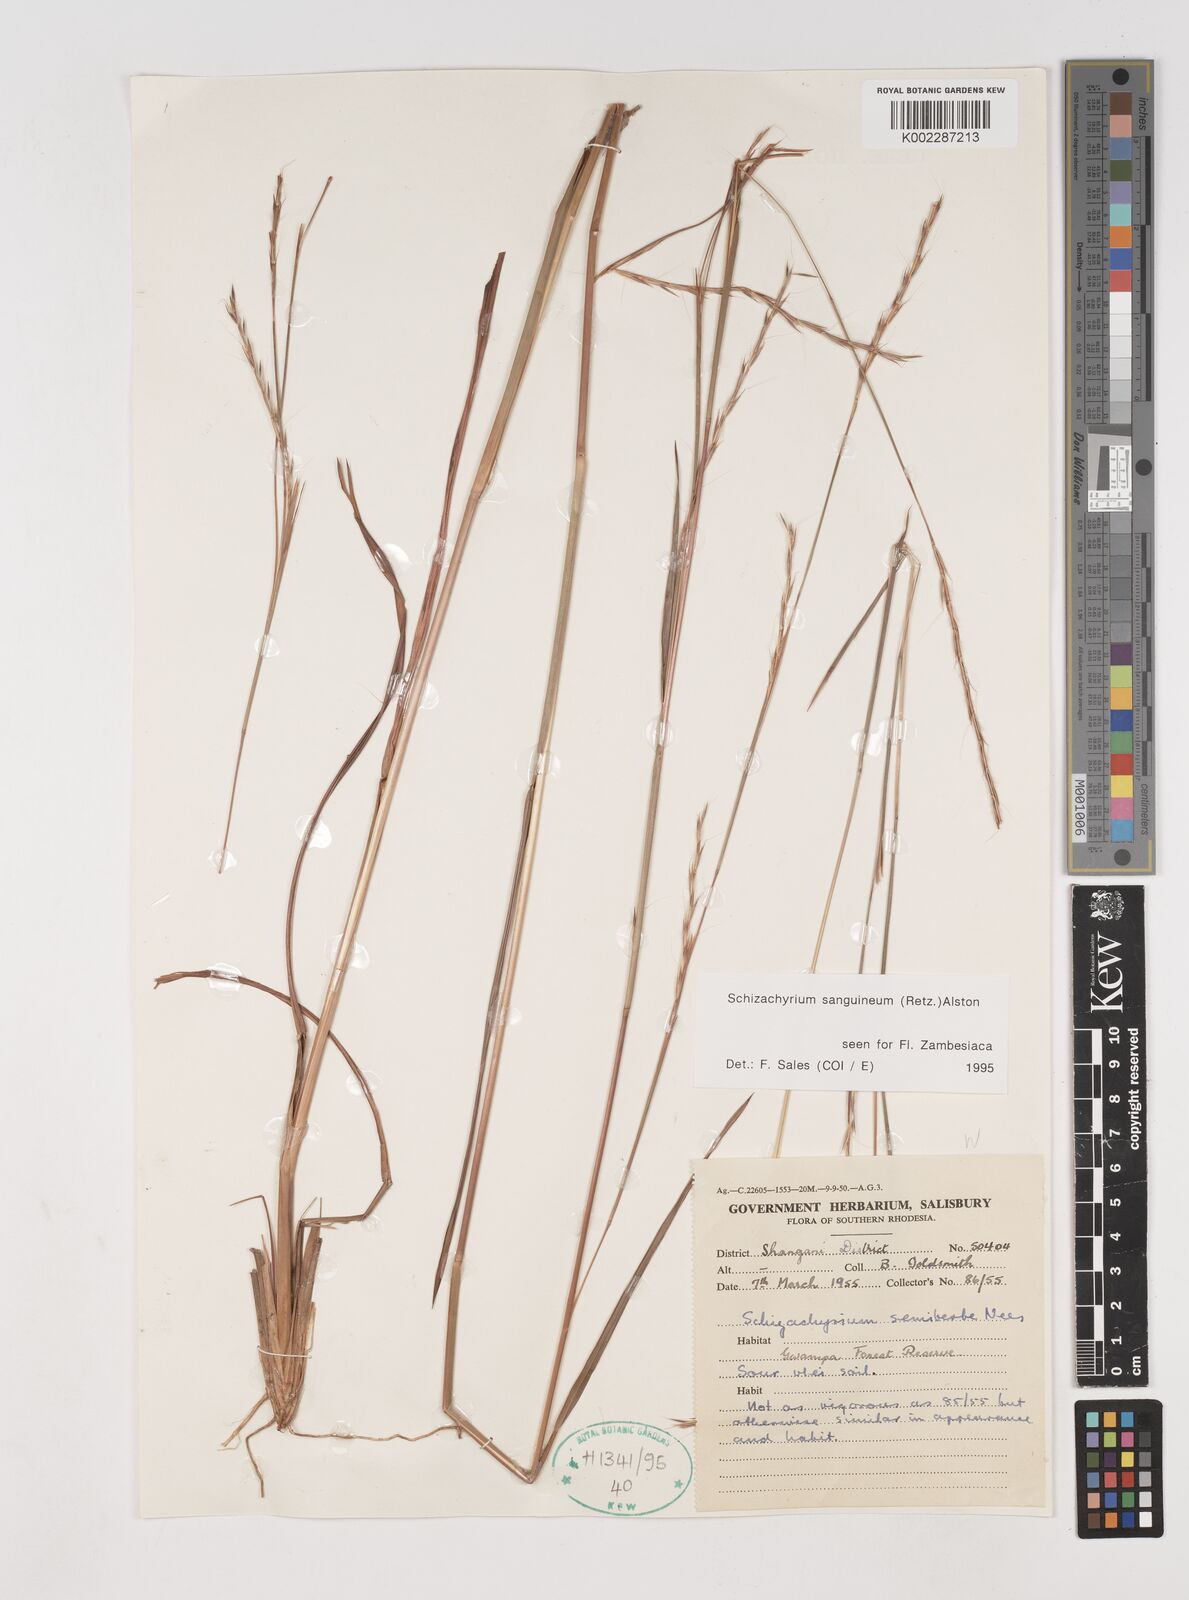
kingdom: Plantae
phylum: Tracheophyta
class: Liliopsida
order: Poales
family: Poaceae
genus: Schizachyrium
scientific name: Schizachyrium sanguineum
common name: Crimson bluestem
